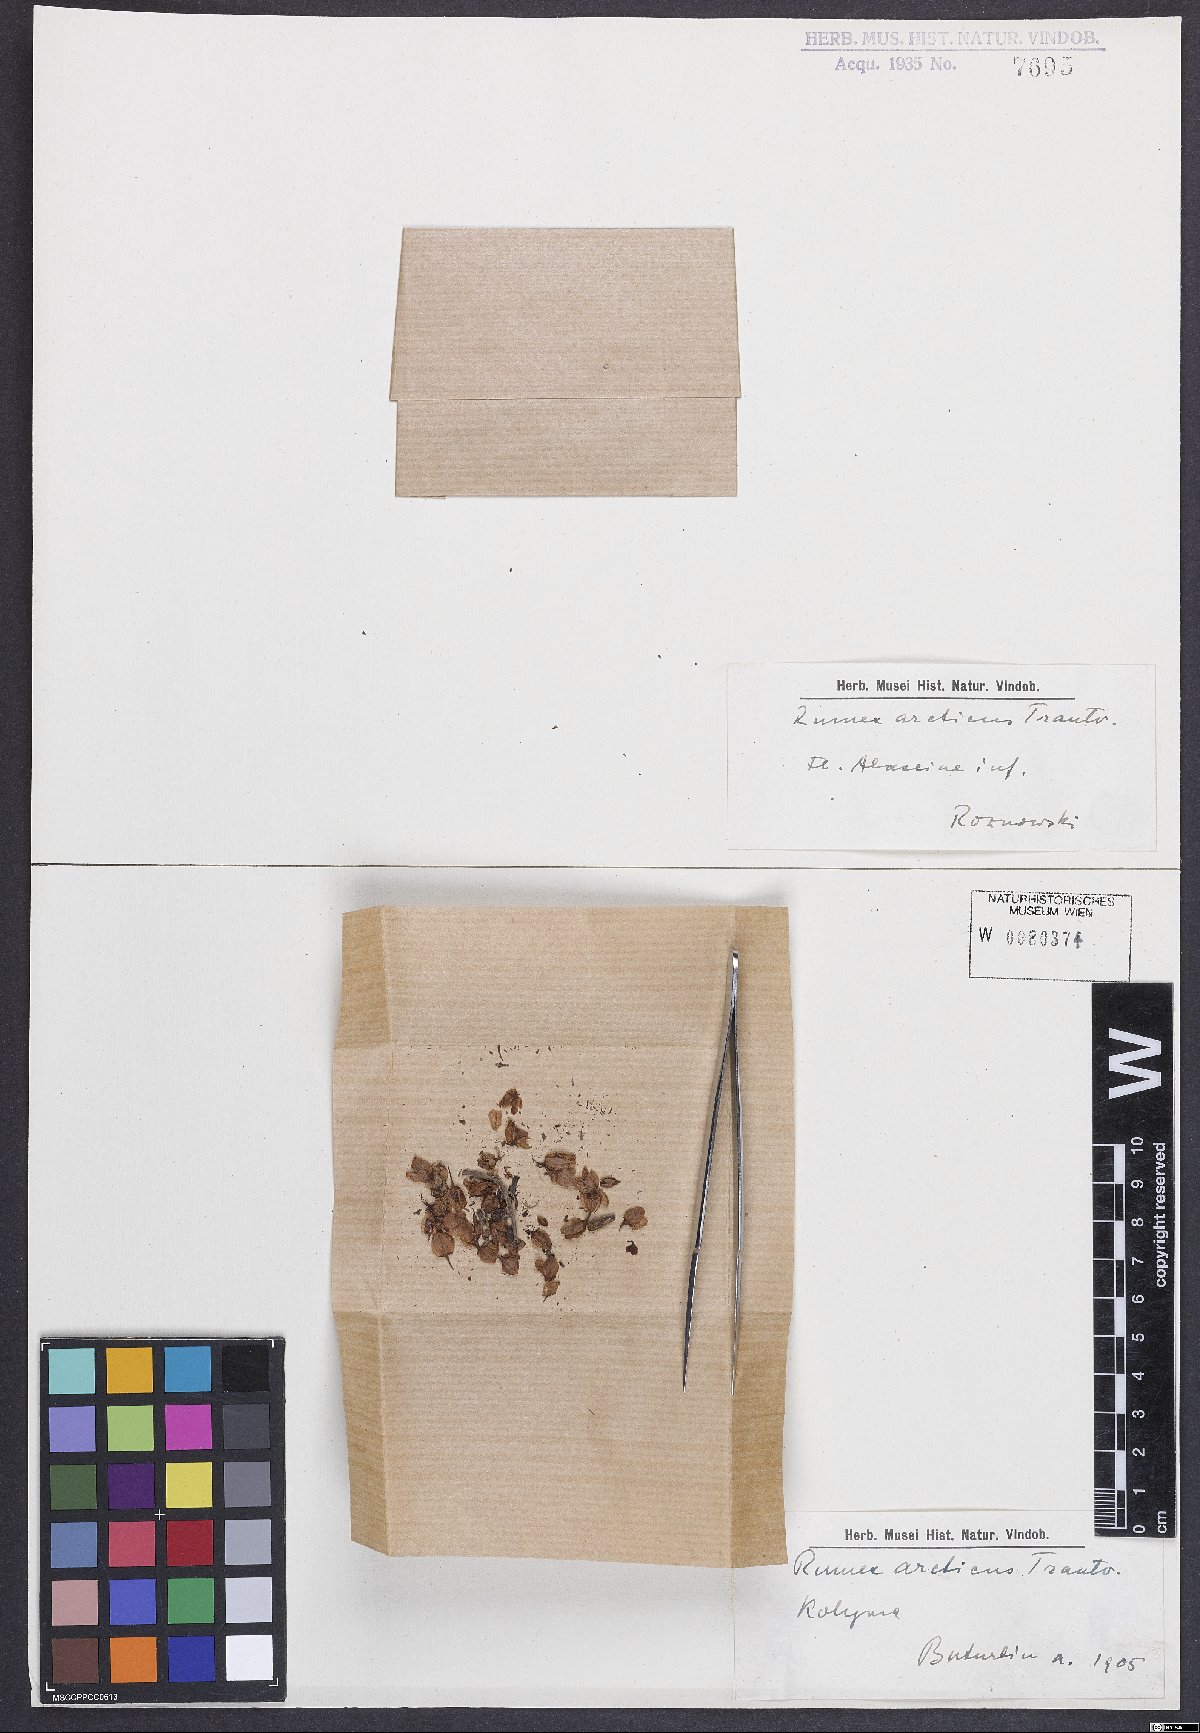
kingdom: Plantae
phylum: Tracheophyta
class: Magnoliopsida
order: Caryophyllales
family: Polygonaceae
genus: Rumex
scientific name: Rumex arcticus
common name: Arctic dock
